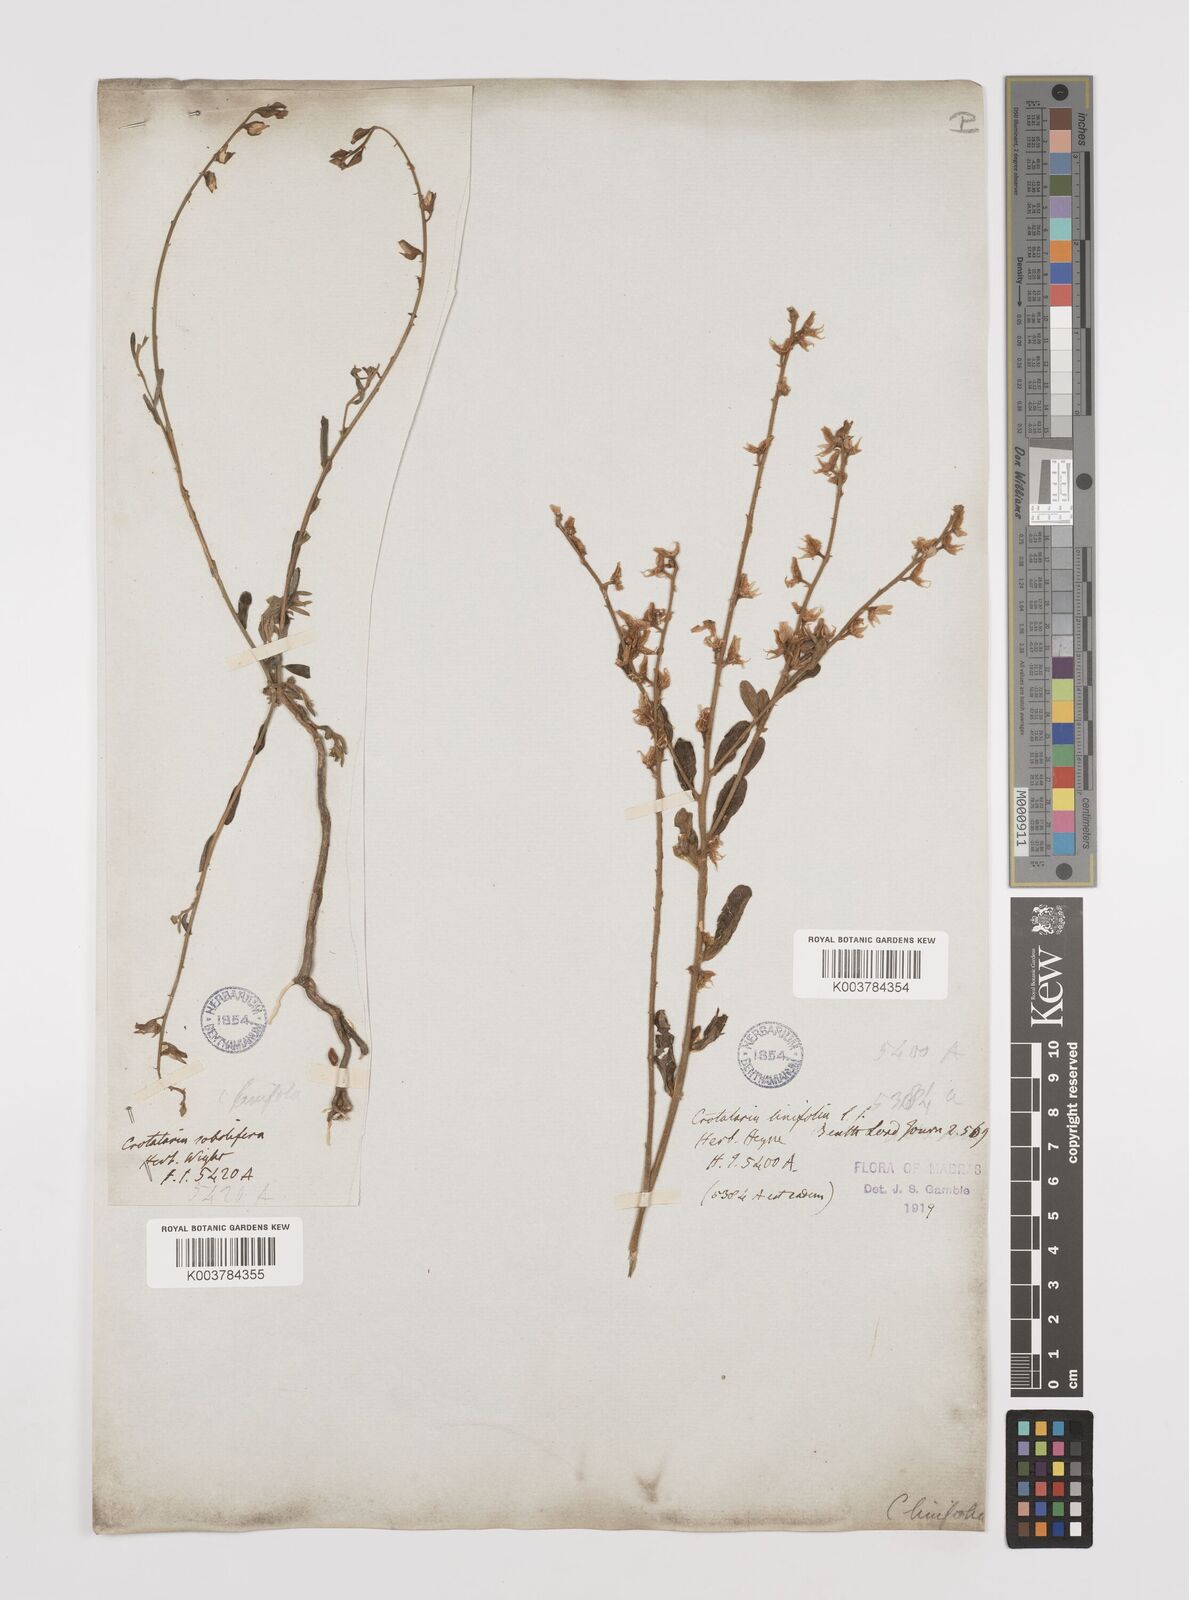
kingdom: Plantae
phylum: Tracheophyta
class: Magnoliopsida
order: Fabales
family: Fabaceae
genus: Crotalaria
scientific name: Crotalaria linifolia
